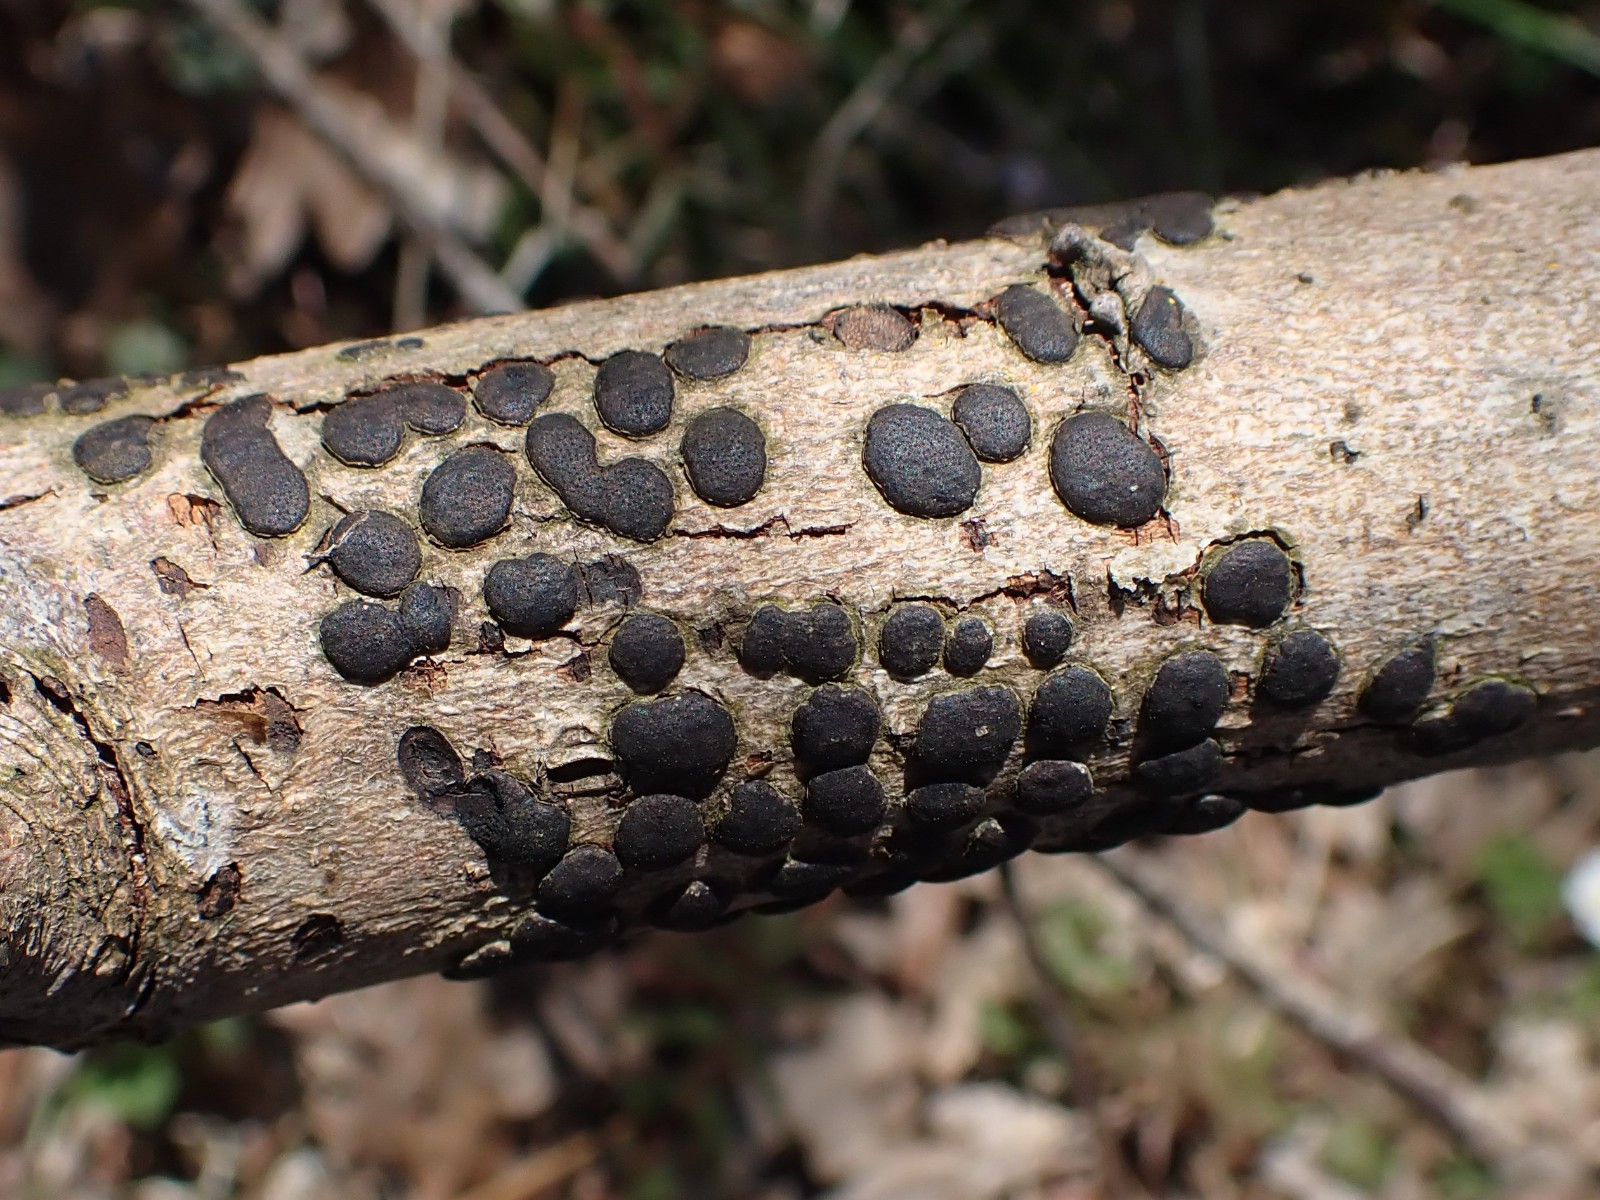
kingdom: Fungi
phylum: Ascomycota
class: Sordariomycetes
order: Xylariales
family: Diatrypaceae
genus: Diatrype
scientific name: Diatrype bullata
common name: pile-kulskorpe
